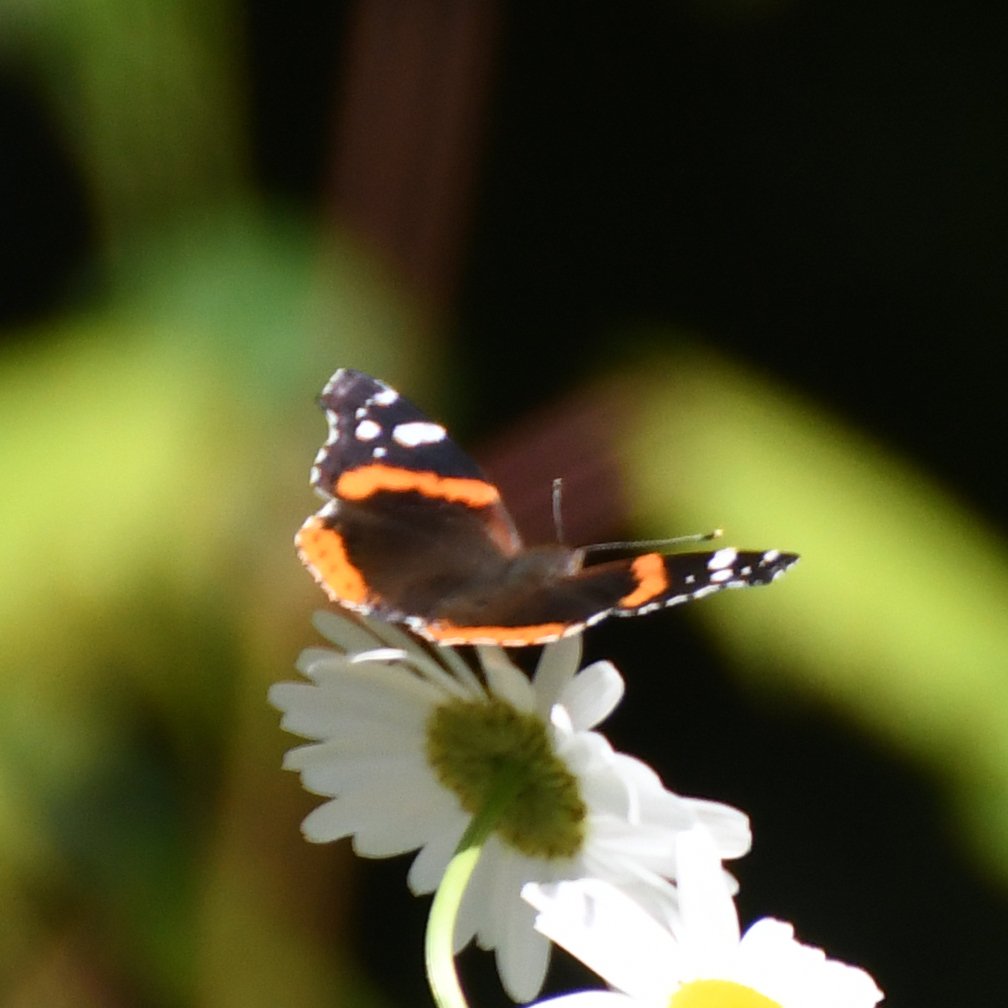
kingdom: Animalia
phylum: Arthropoda
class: Insecta
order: Lepidoptera
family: Nymphalidae
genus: Vanessa
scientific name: Vanessa atalanta
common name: Red Admiral
